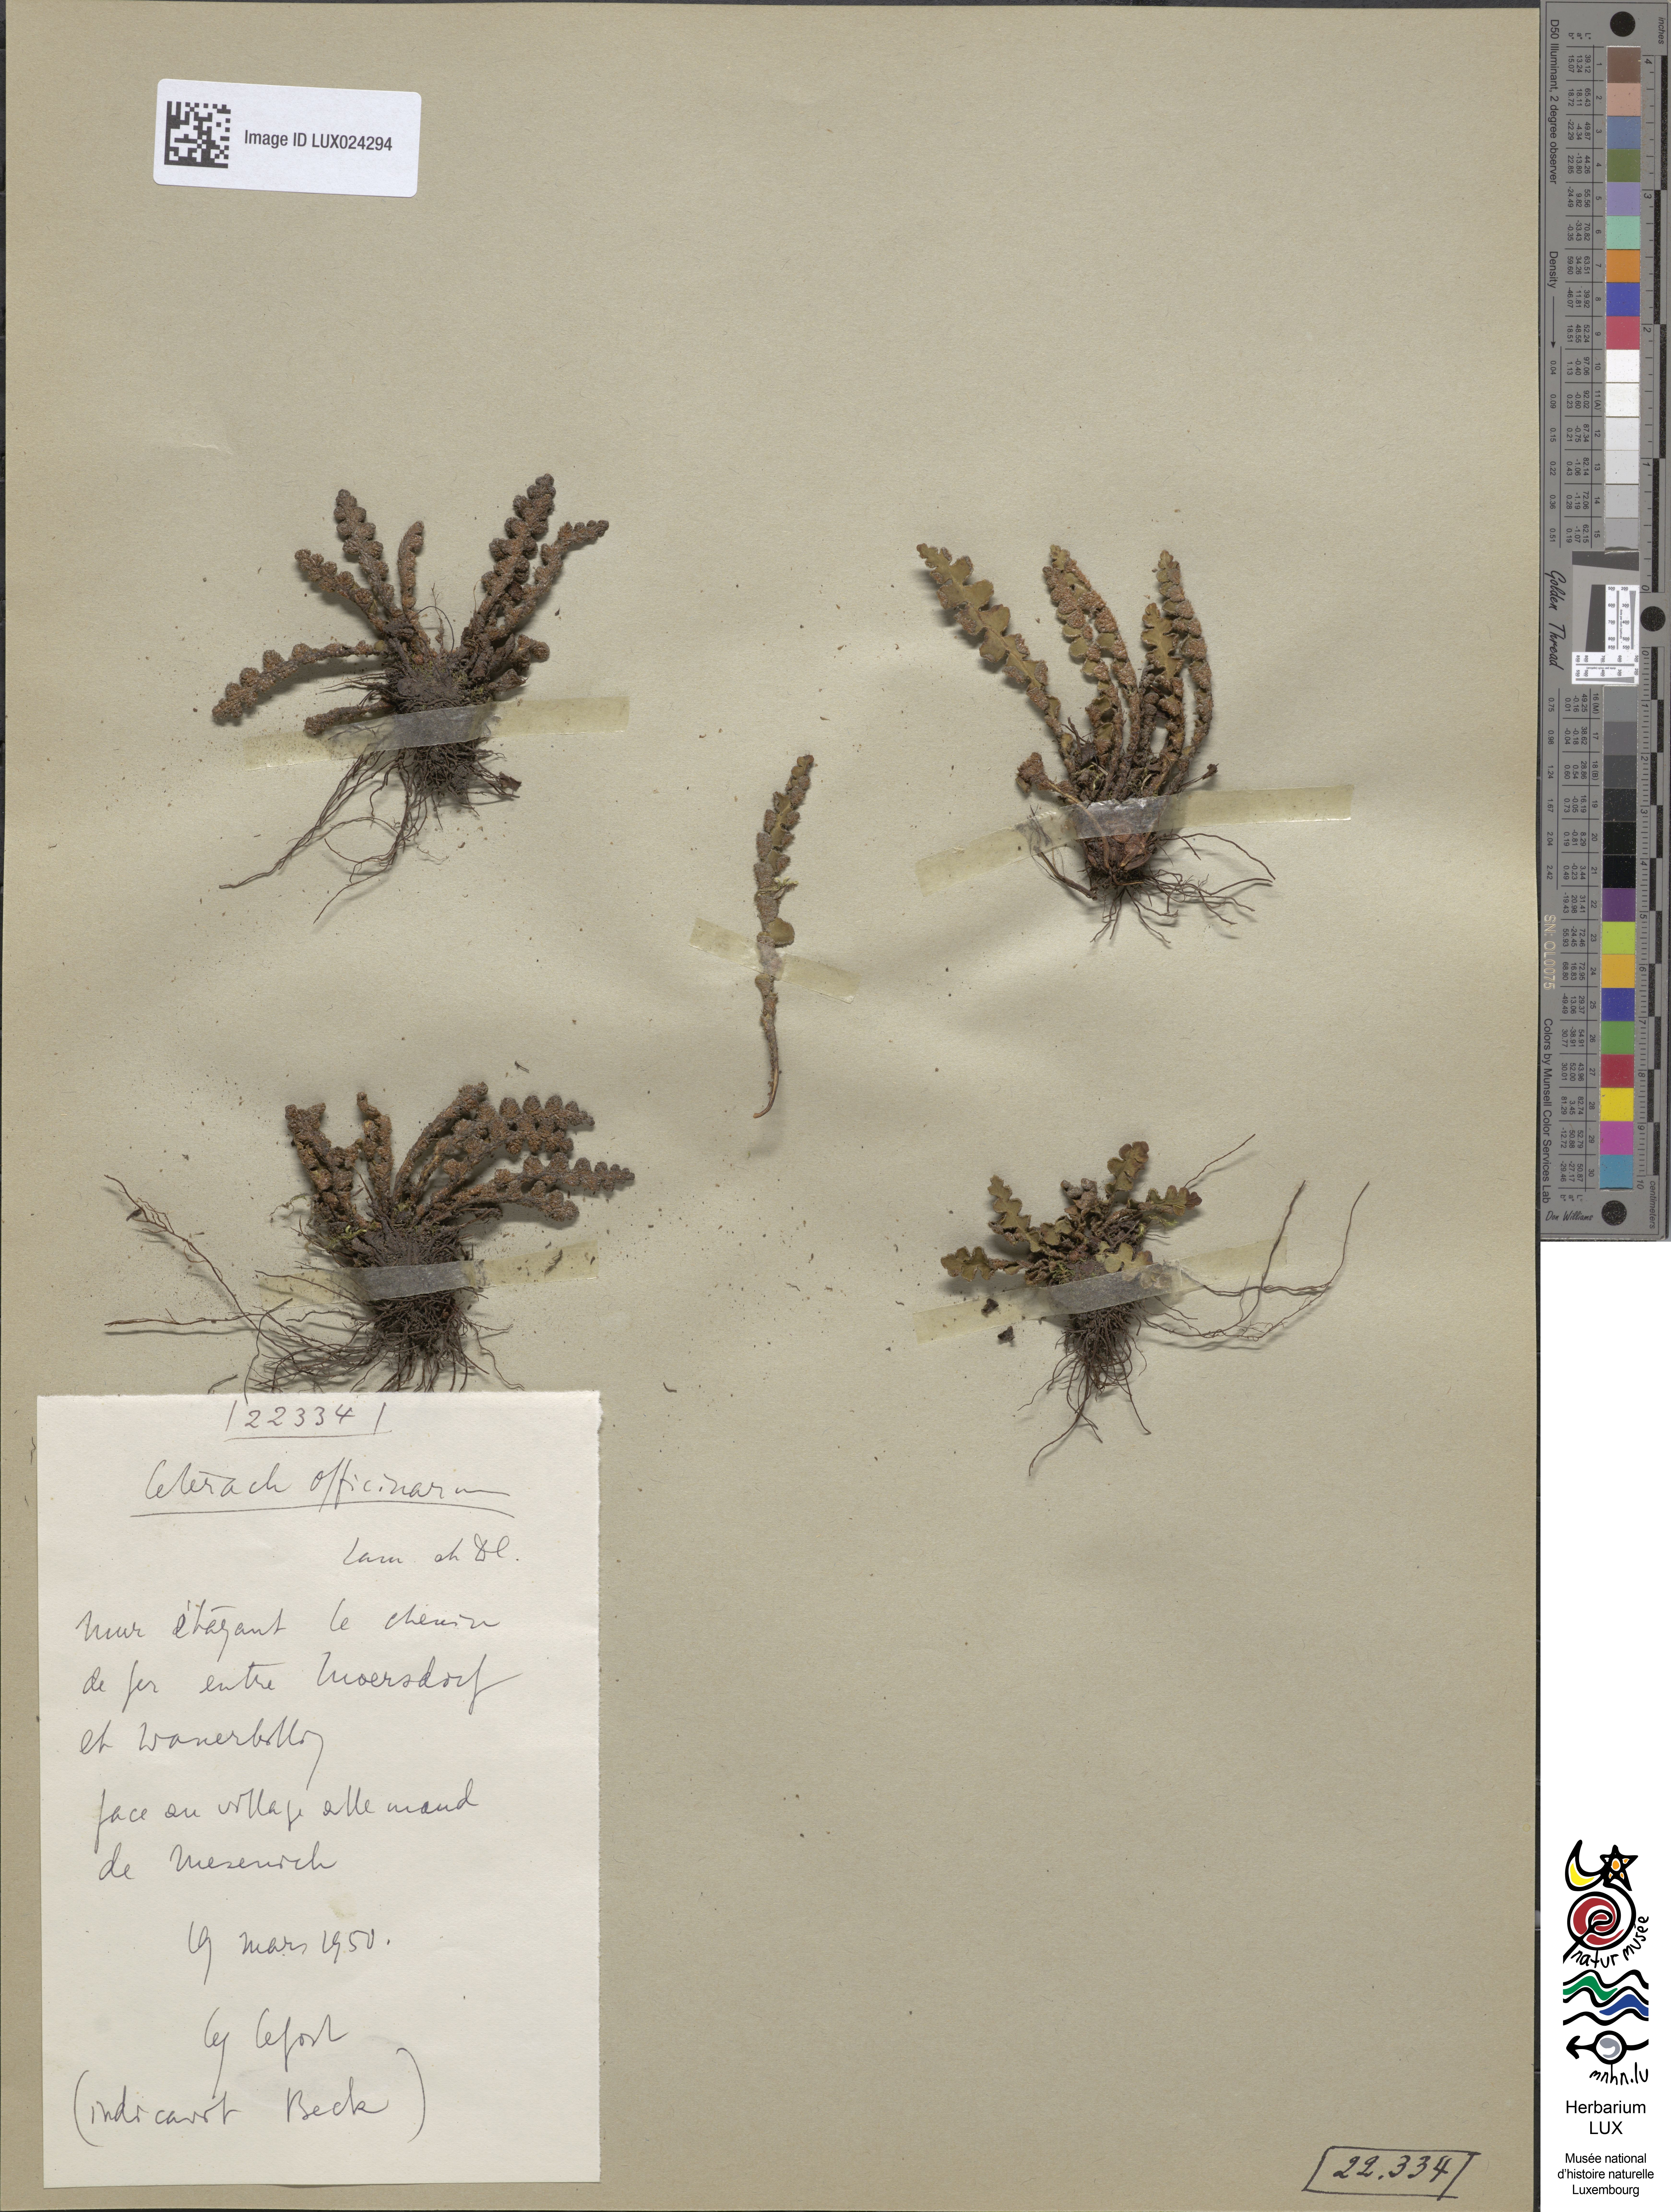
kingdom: Plantae
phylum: Tracheophyta
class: Polypodiopsida
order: Polypodiales
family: Aspleniaceae
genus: Asplenium
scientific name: Asplenium ceterach
